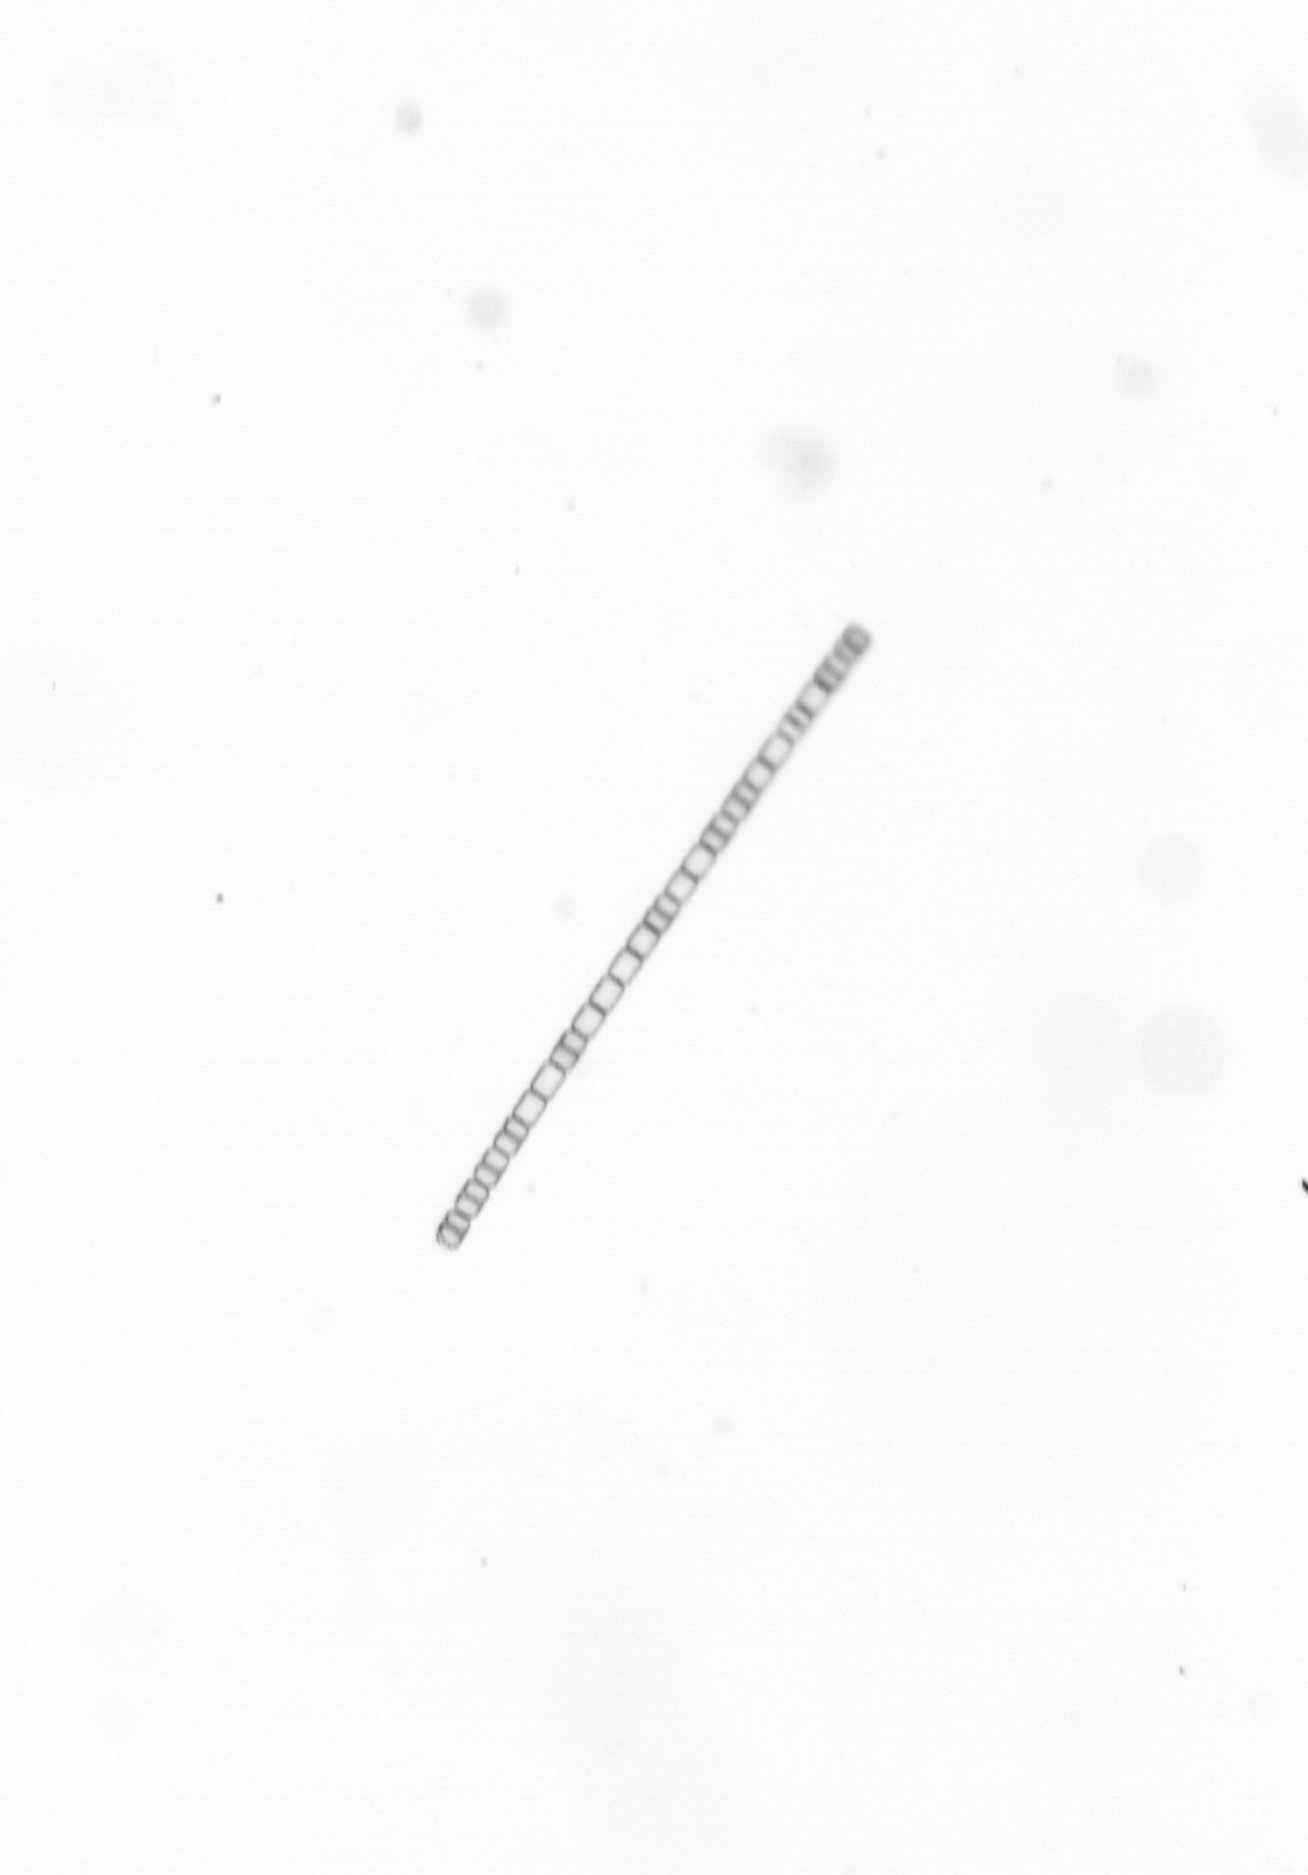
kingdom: Chromista
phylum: Ochrophyta
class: Bacillariophyceae
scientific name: Bacillariophyceae
